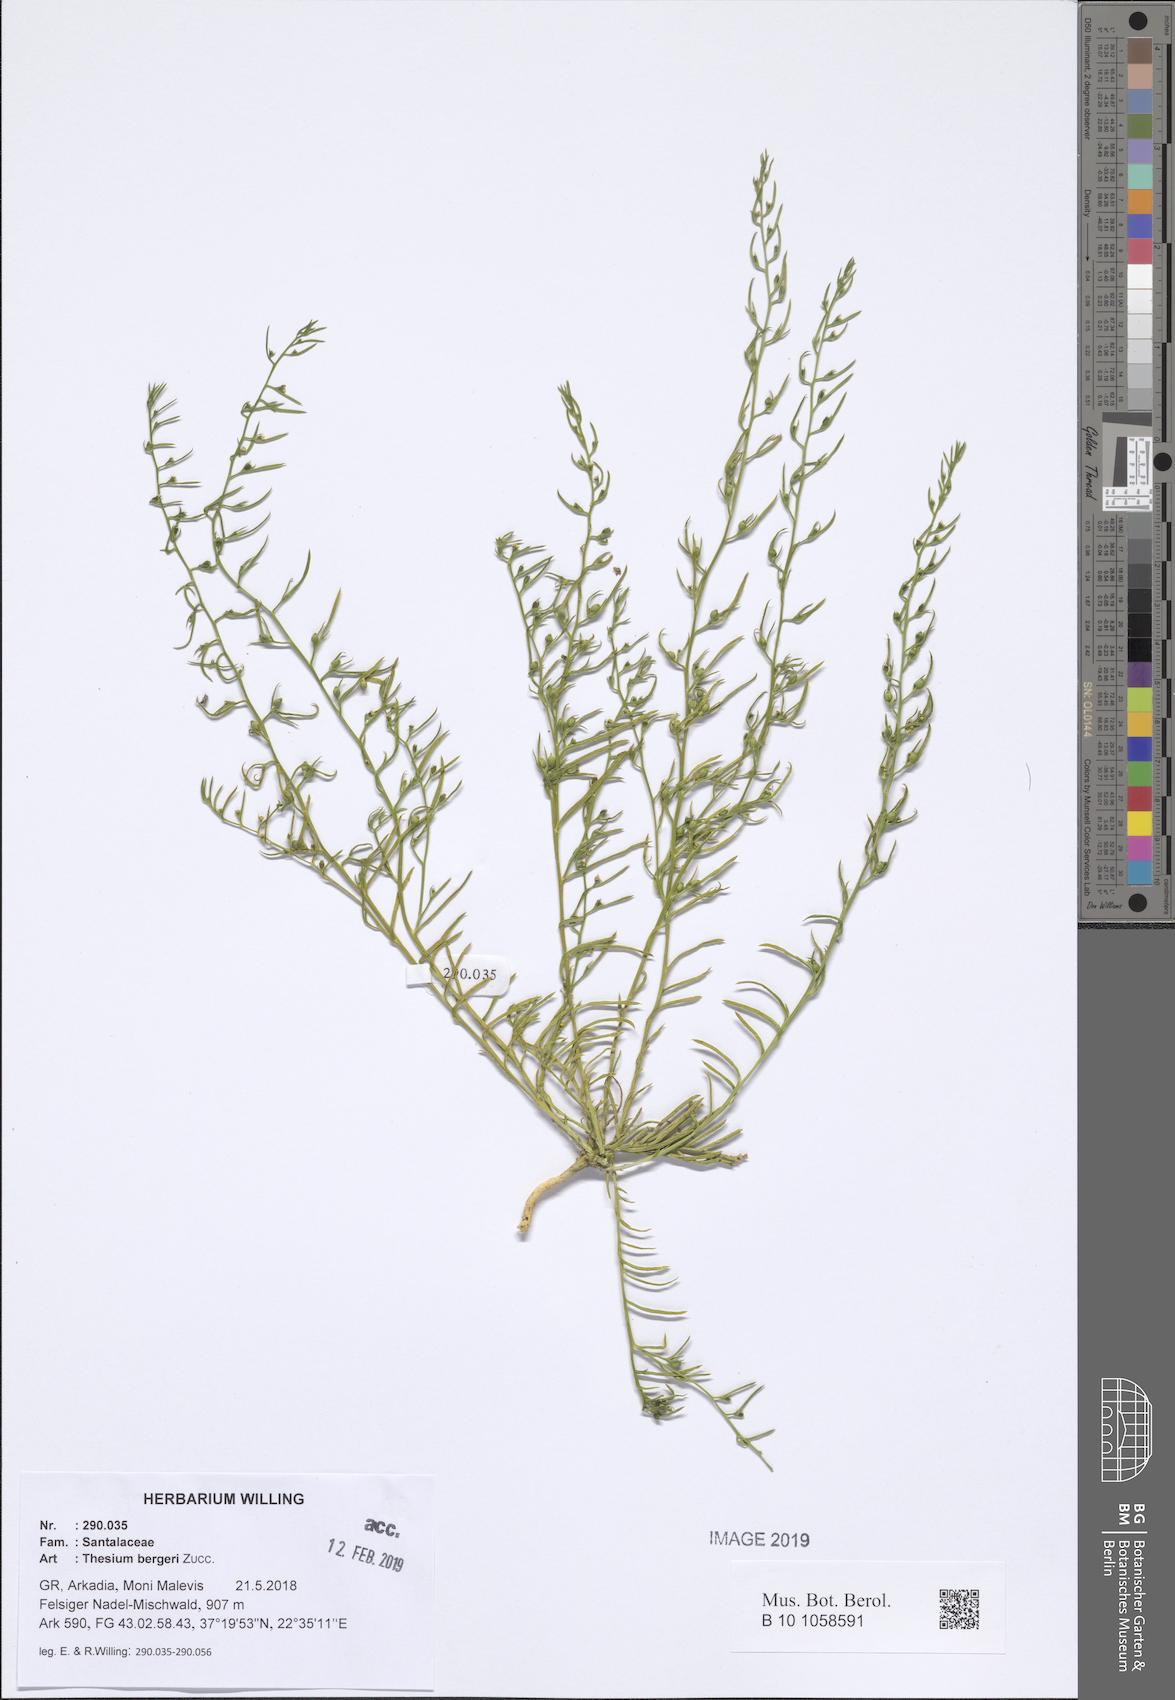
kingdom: Plantae
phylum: Tracheophyta
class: Magnoliopsida
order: Santalales
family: Thesiaceae
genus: Thesium
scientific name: Thesium bergeri
